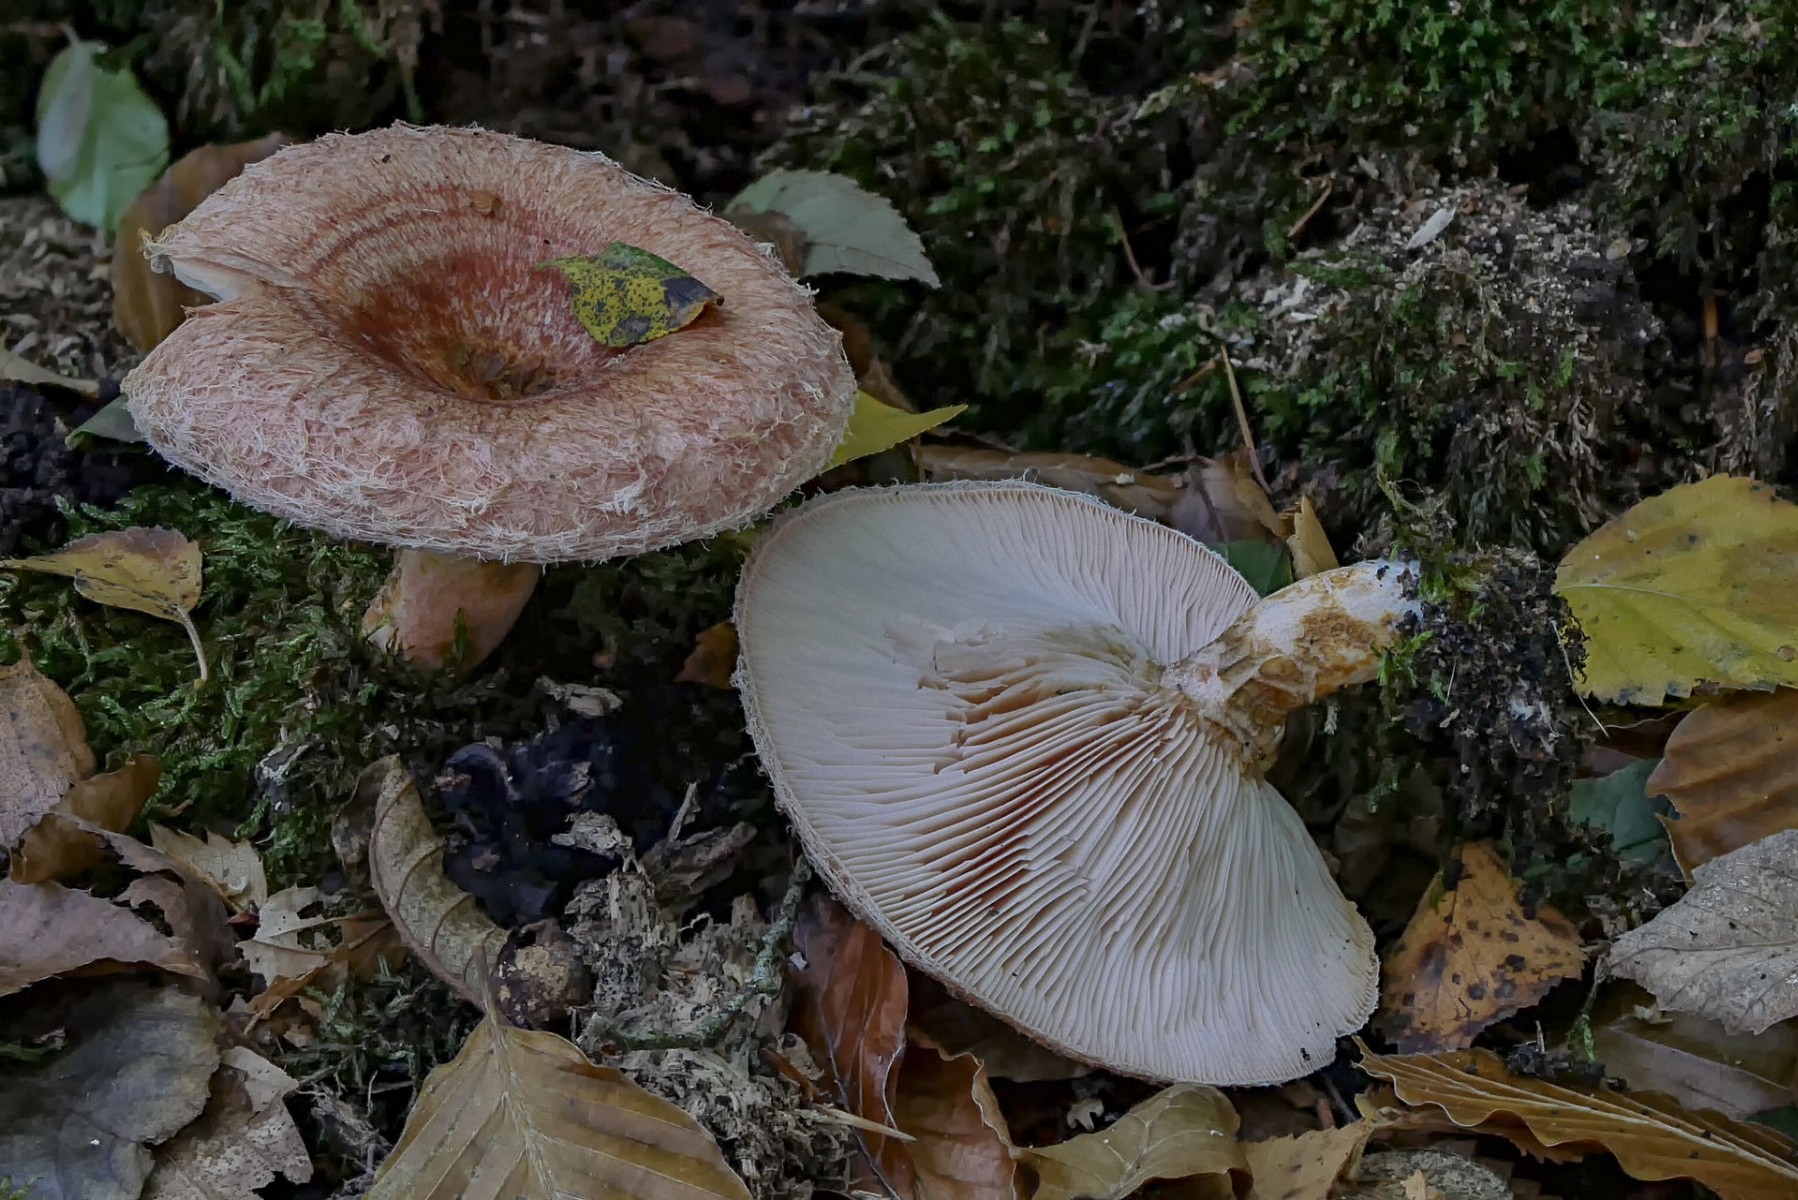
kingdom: Fungi
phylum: Basidiomycota
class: Agaricomycetes
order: Russulales
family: Russulaceae
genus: Lactarius
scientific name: Lactarius torminosus
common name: skægget mælkehat
